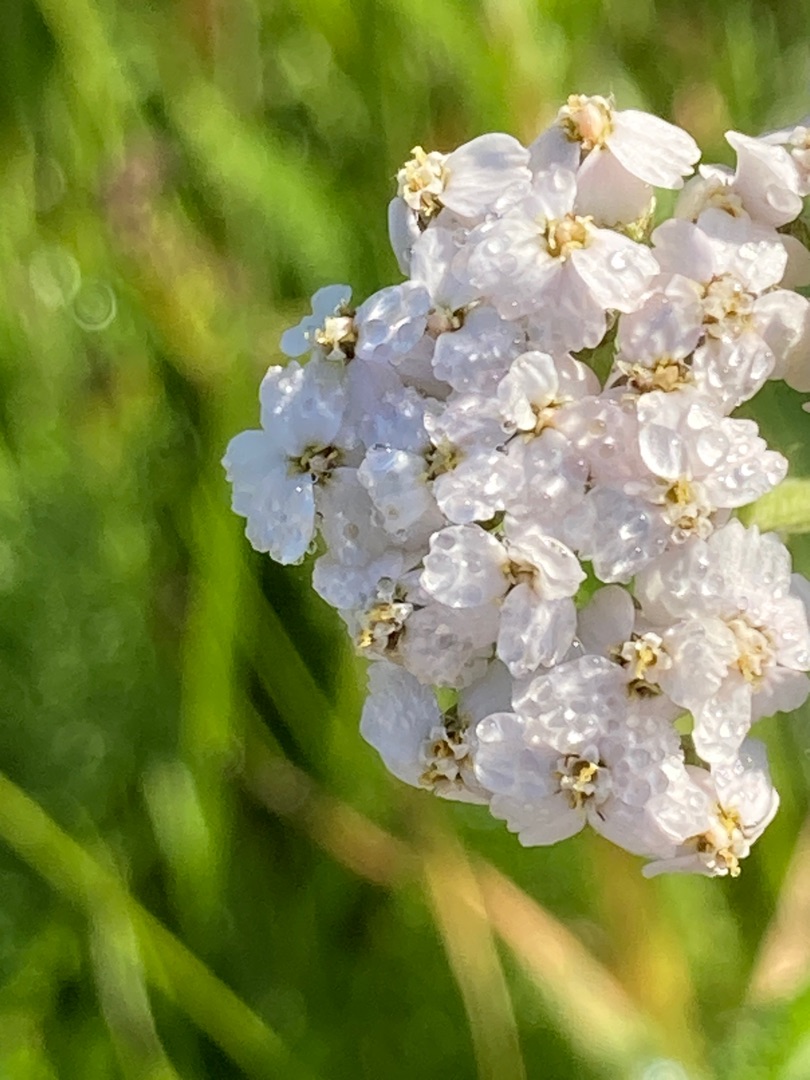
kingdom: Plantae
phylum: Tracheophyta
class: Magnoliopsida
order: Asterales
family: Asteraceae
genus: Achillea
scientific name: Achillea millefolium
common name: Almindelig røllike
